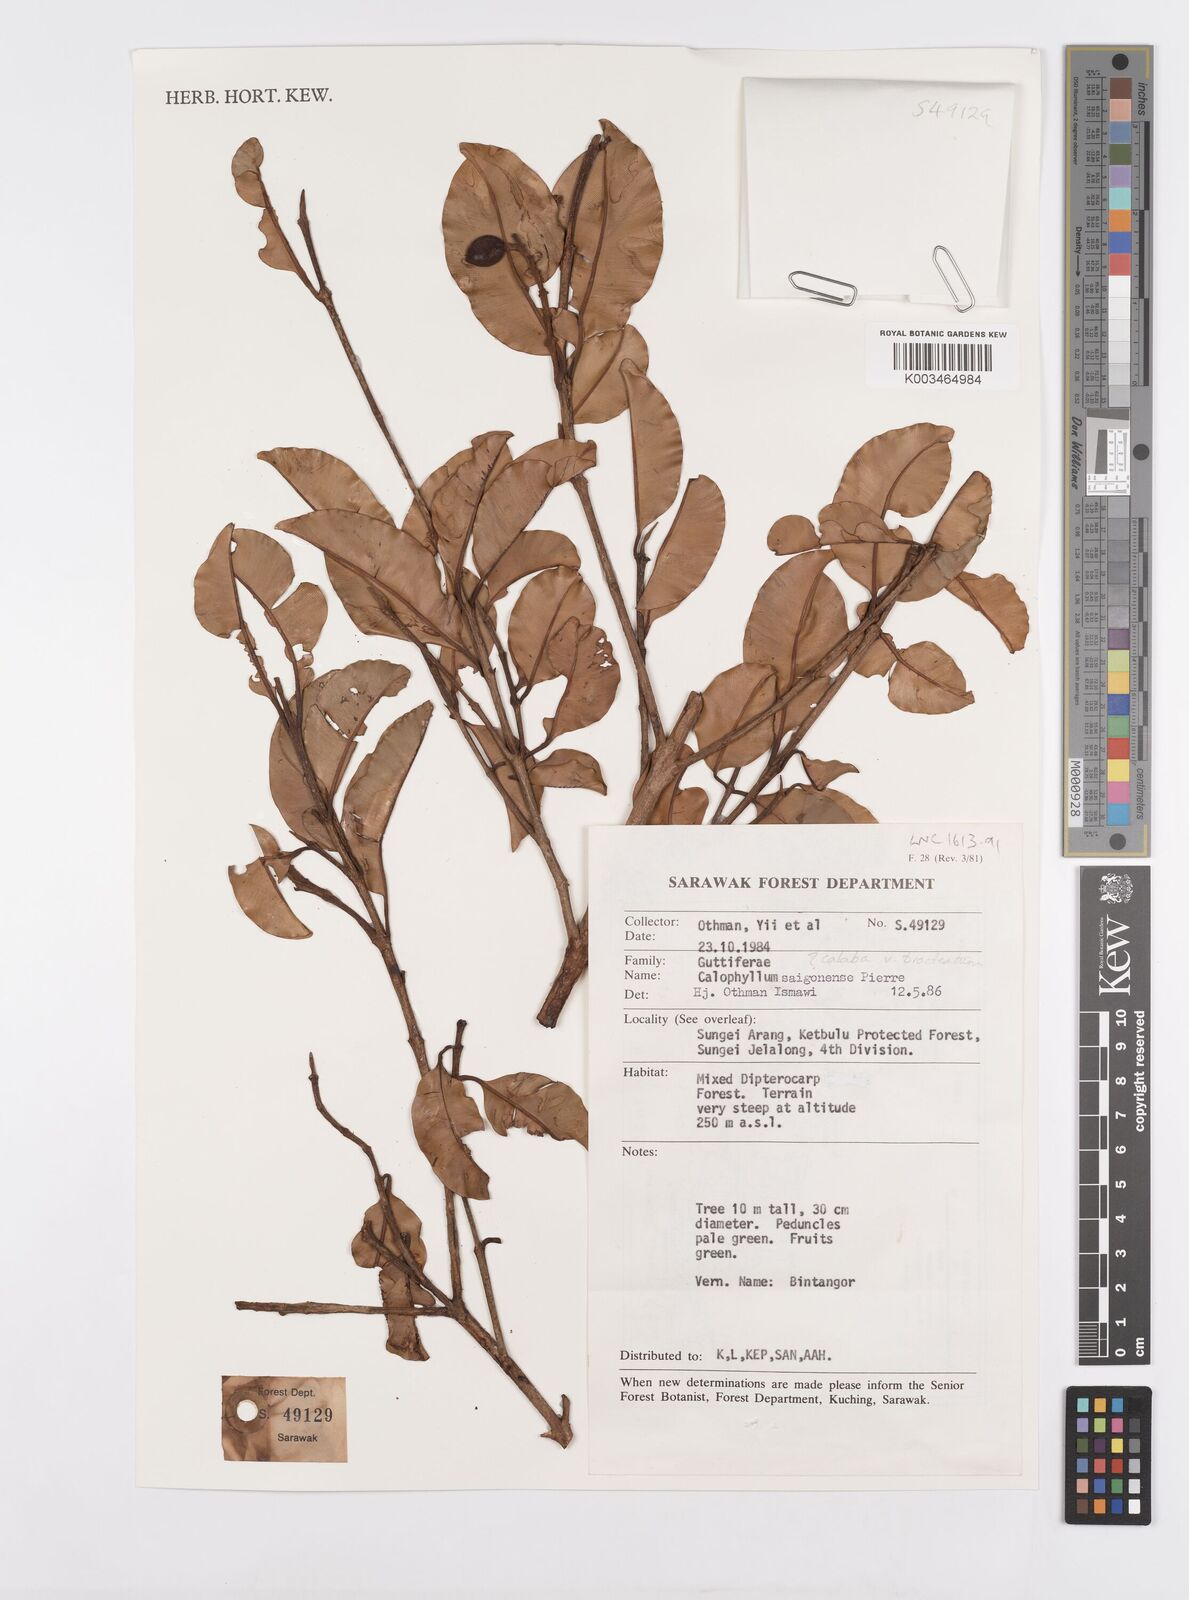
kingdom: Plantae
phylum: Tracheophyta
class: Magnoliopsida
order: Malpighiales
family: Calophyllaceae
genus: Calophyllum
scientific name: Calophyllum calaba
